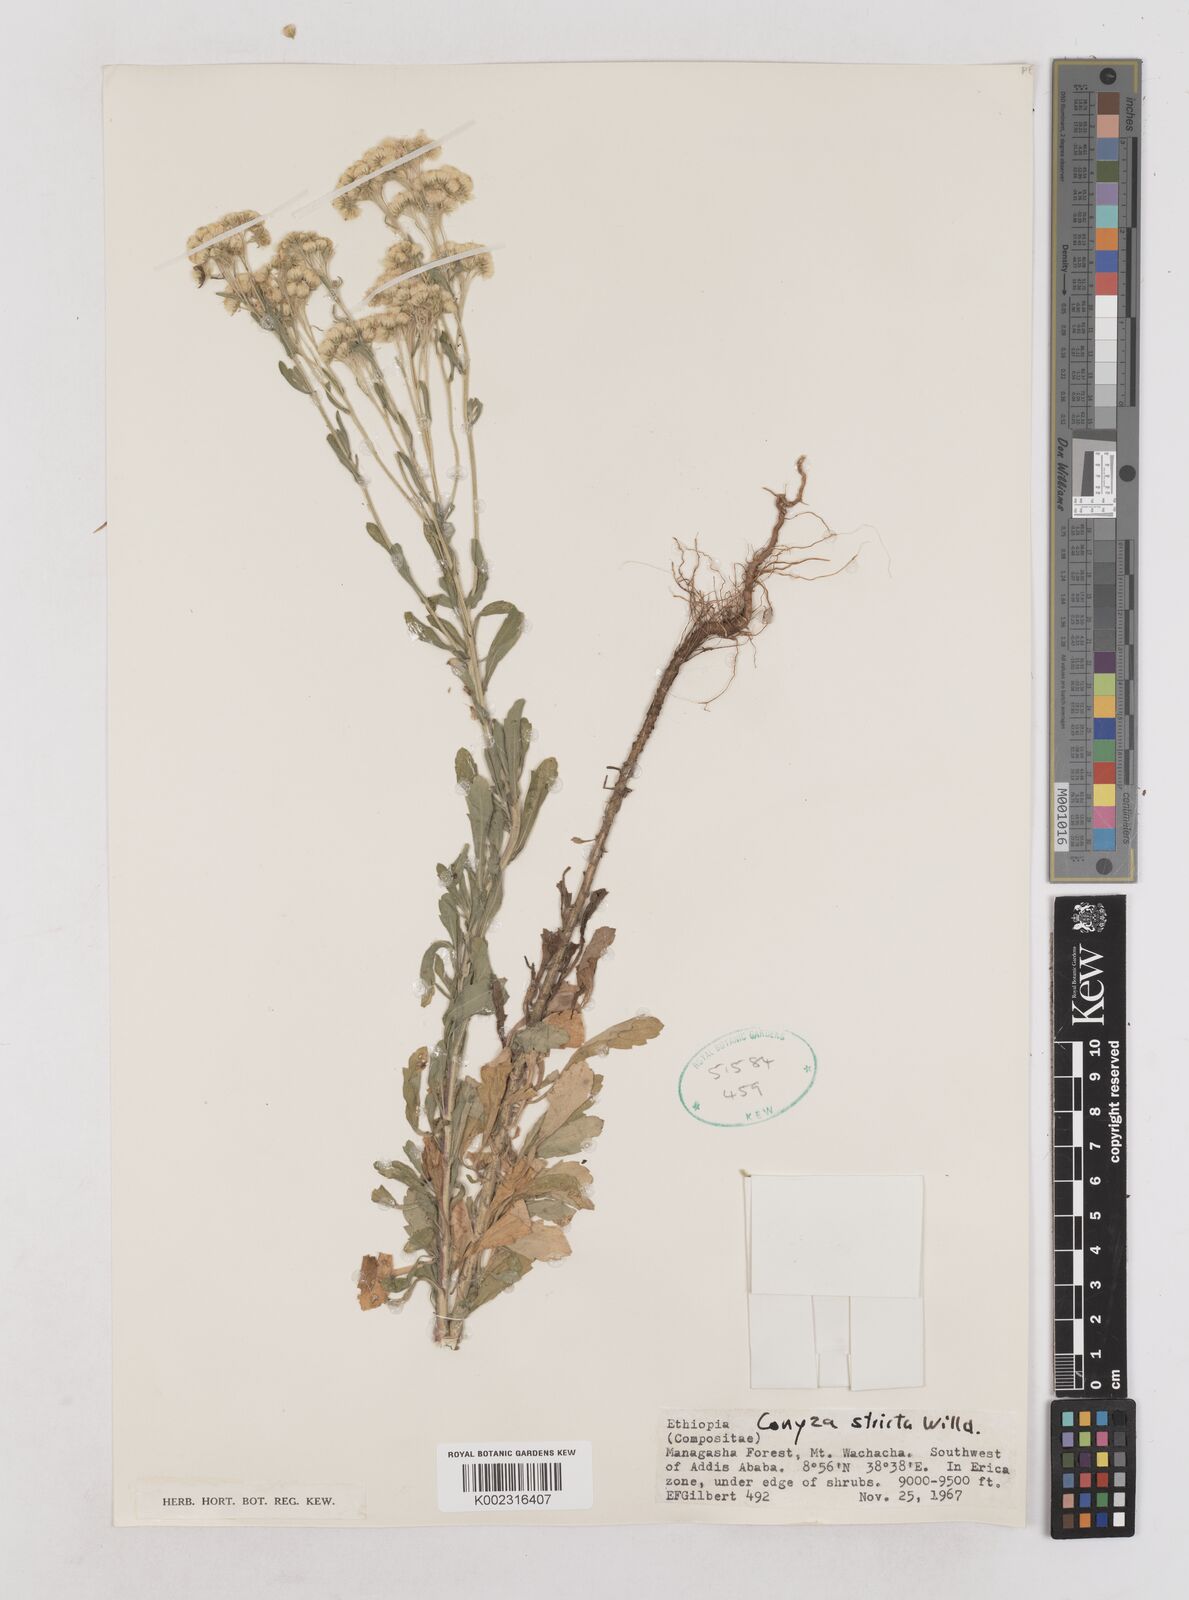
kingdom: Plantae
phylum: Tracheophyta
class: Magnoliopsida
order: Asterales
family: Asteraceae
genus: Nidorella
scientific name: Nidorella triloba
